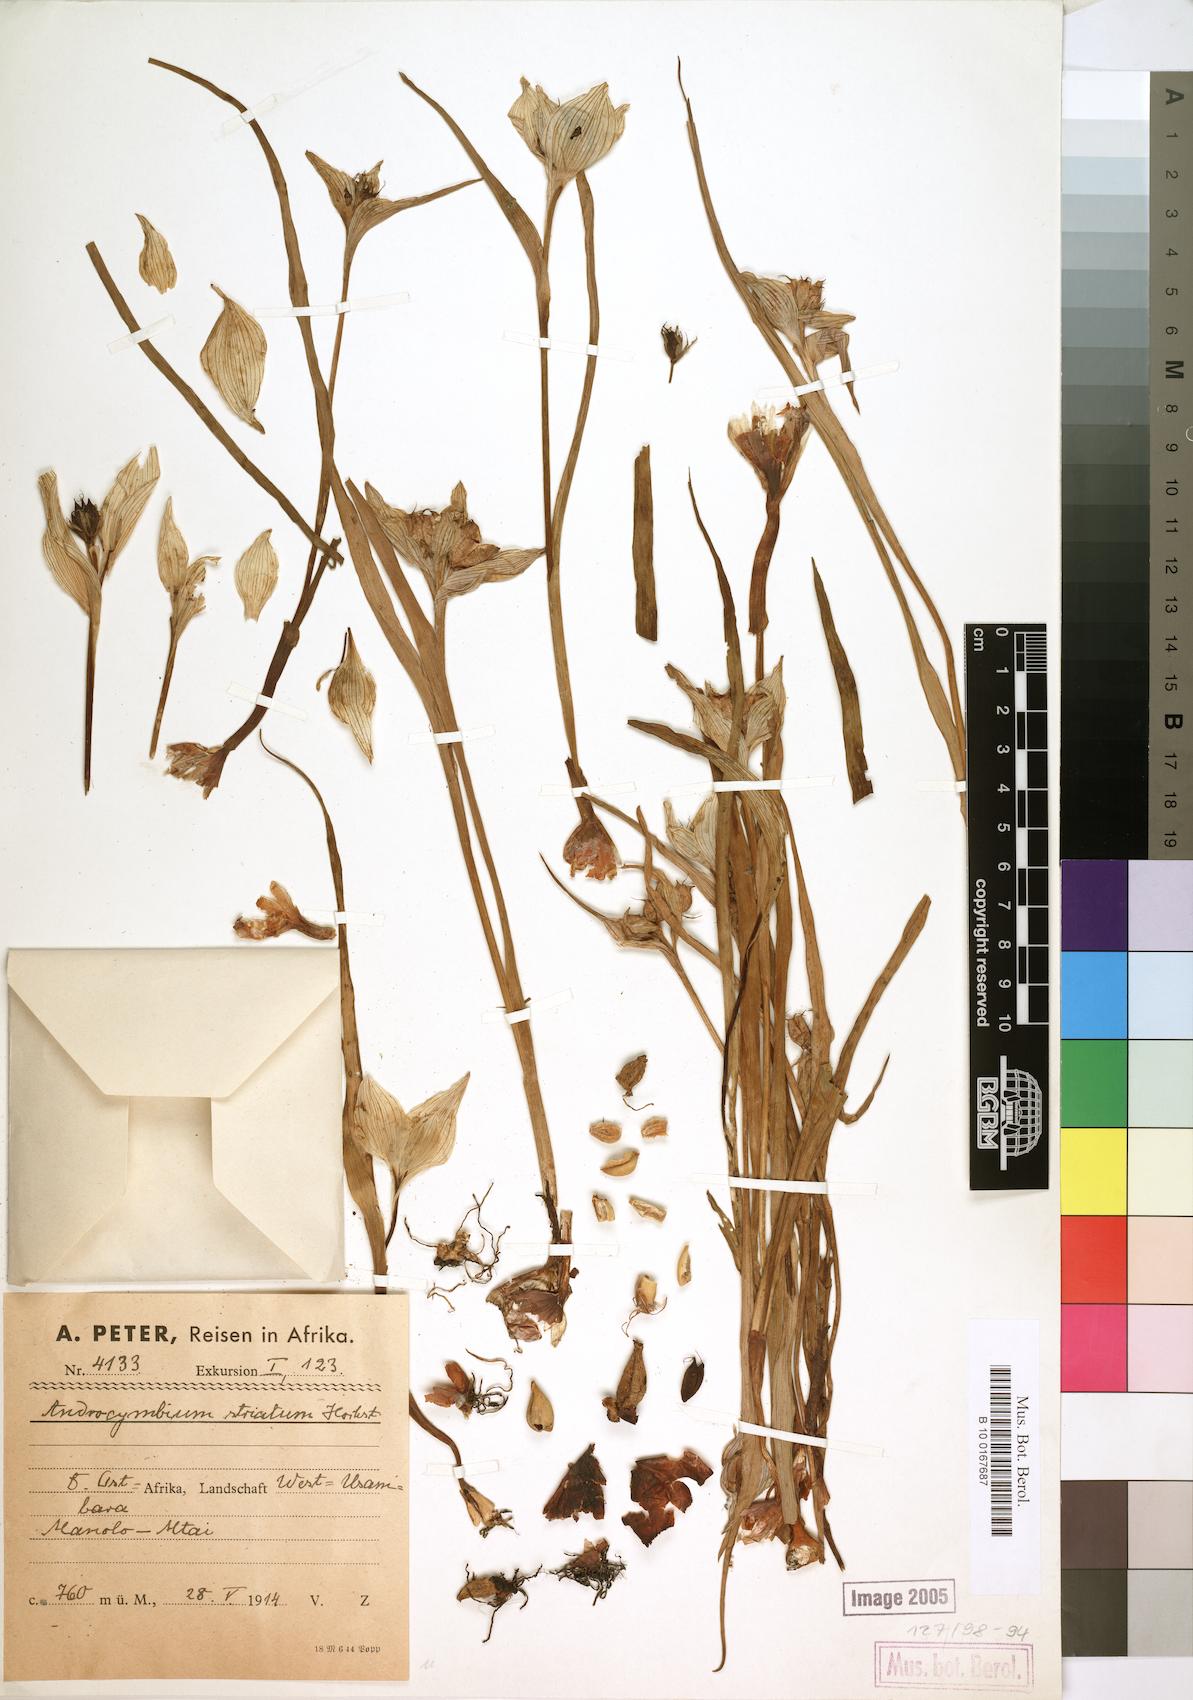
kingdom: Plantae
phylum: Tracheophyta
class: Liliopsida
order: Liliales
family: Colchicaceae
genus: Colchicum
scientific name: Colchicum striatum
